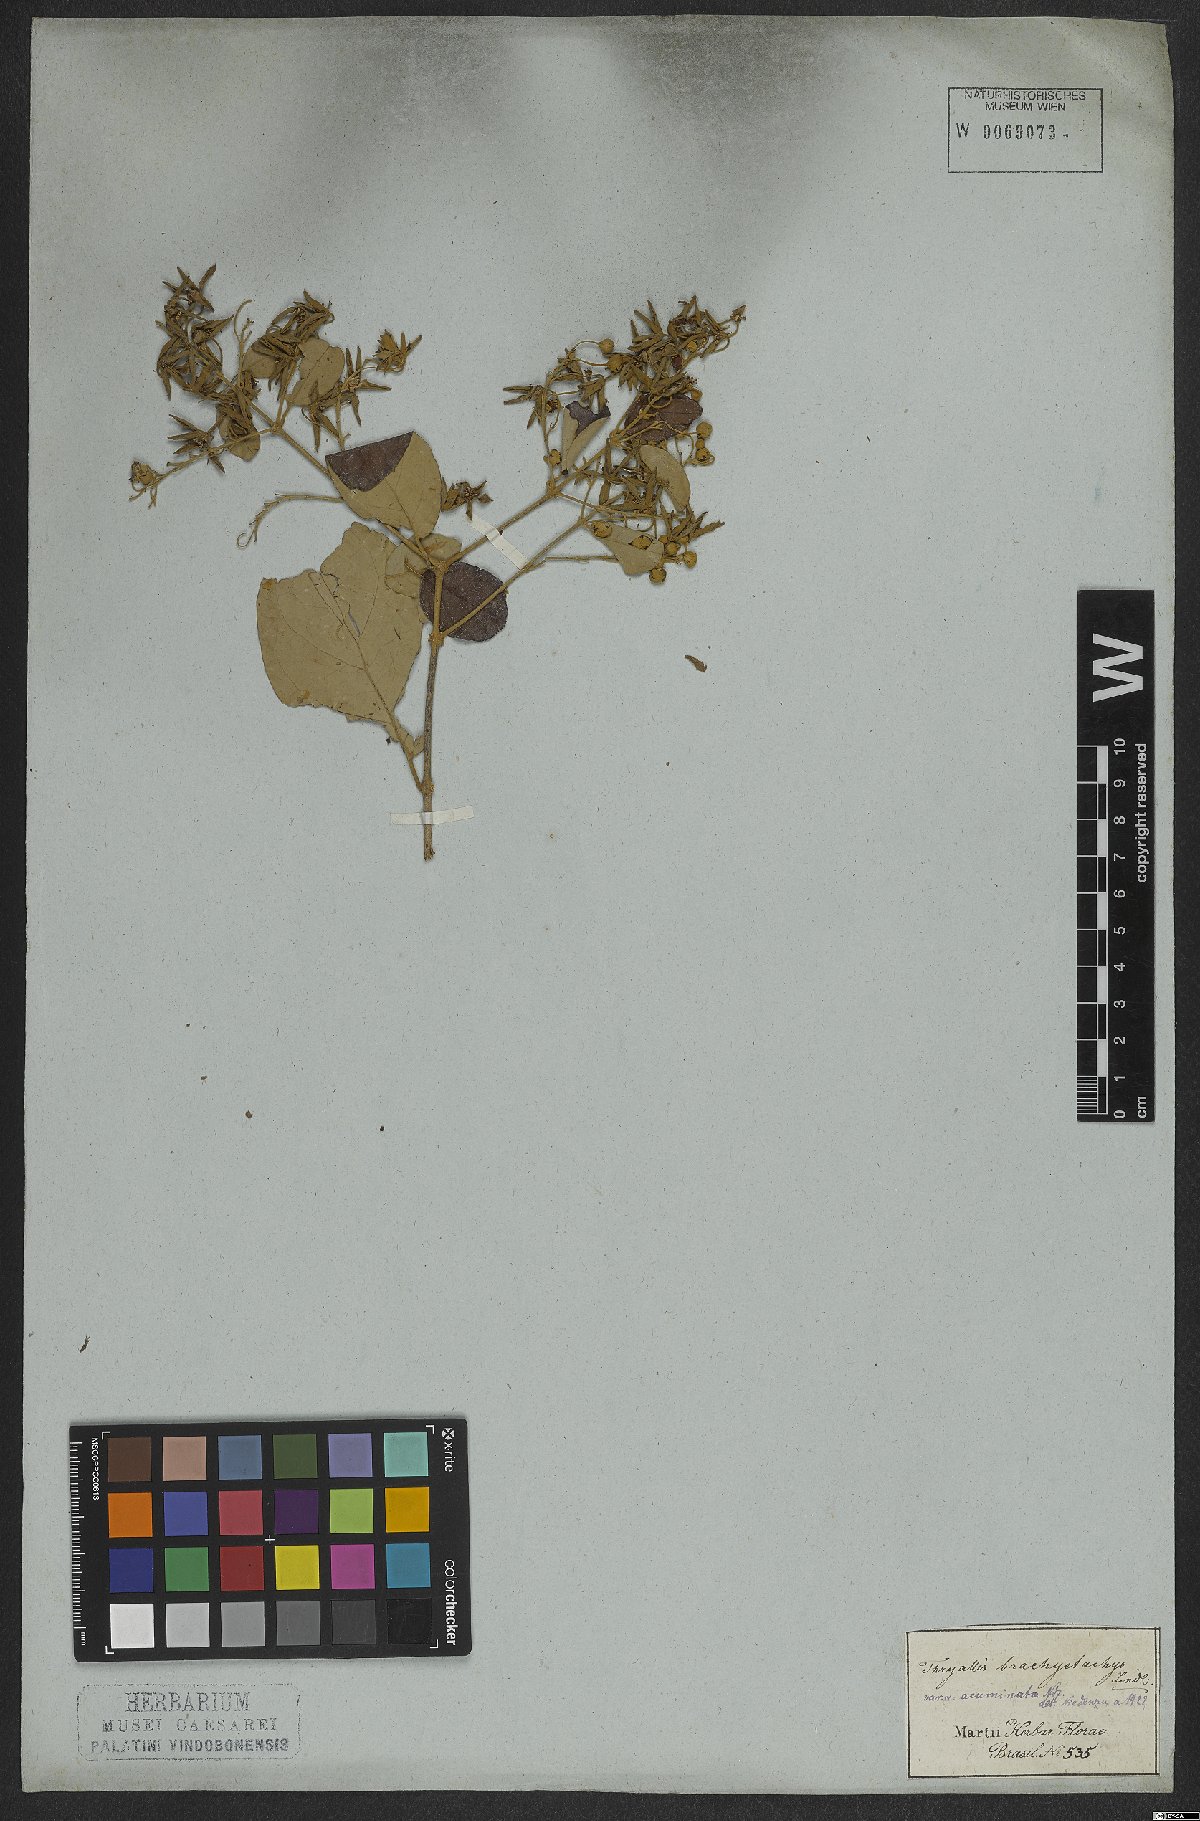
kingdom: Plantae
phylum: Tracheophyta
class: Magnoliopsida
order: Malpighiales
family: Malpighiaceae
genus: Thryallis
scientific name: Thryallis laburnum
